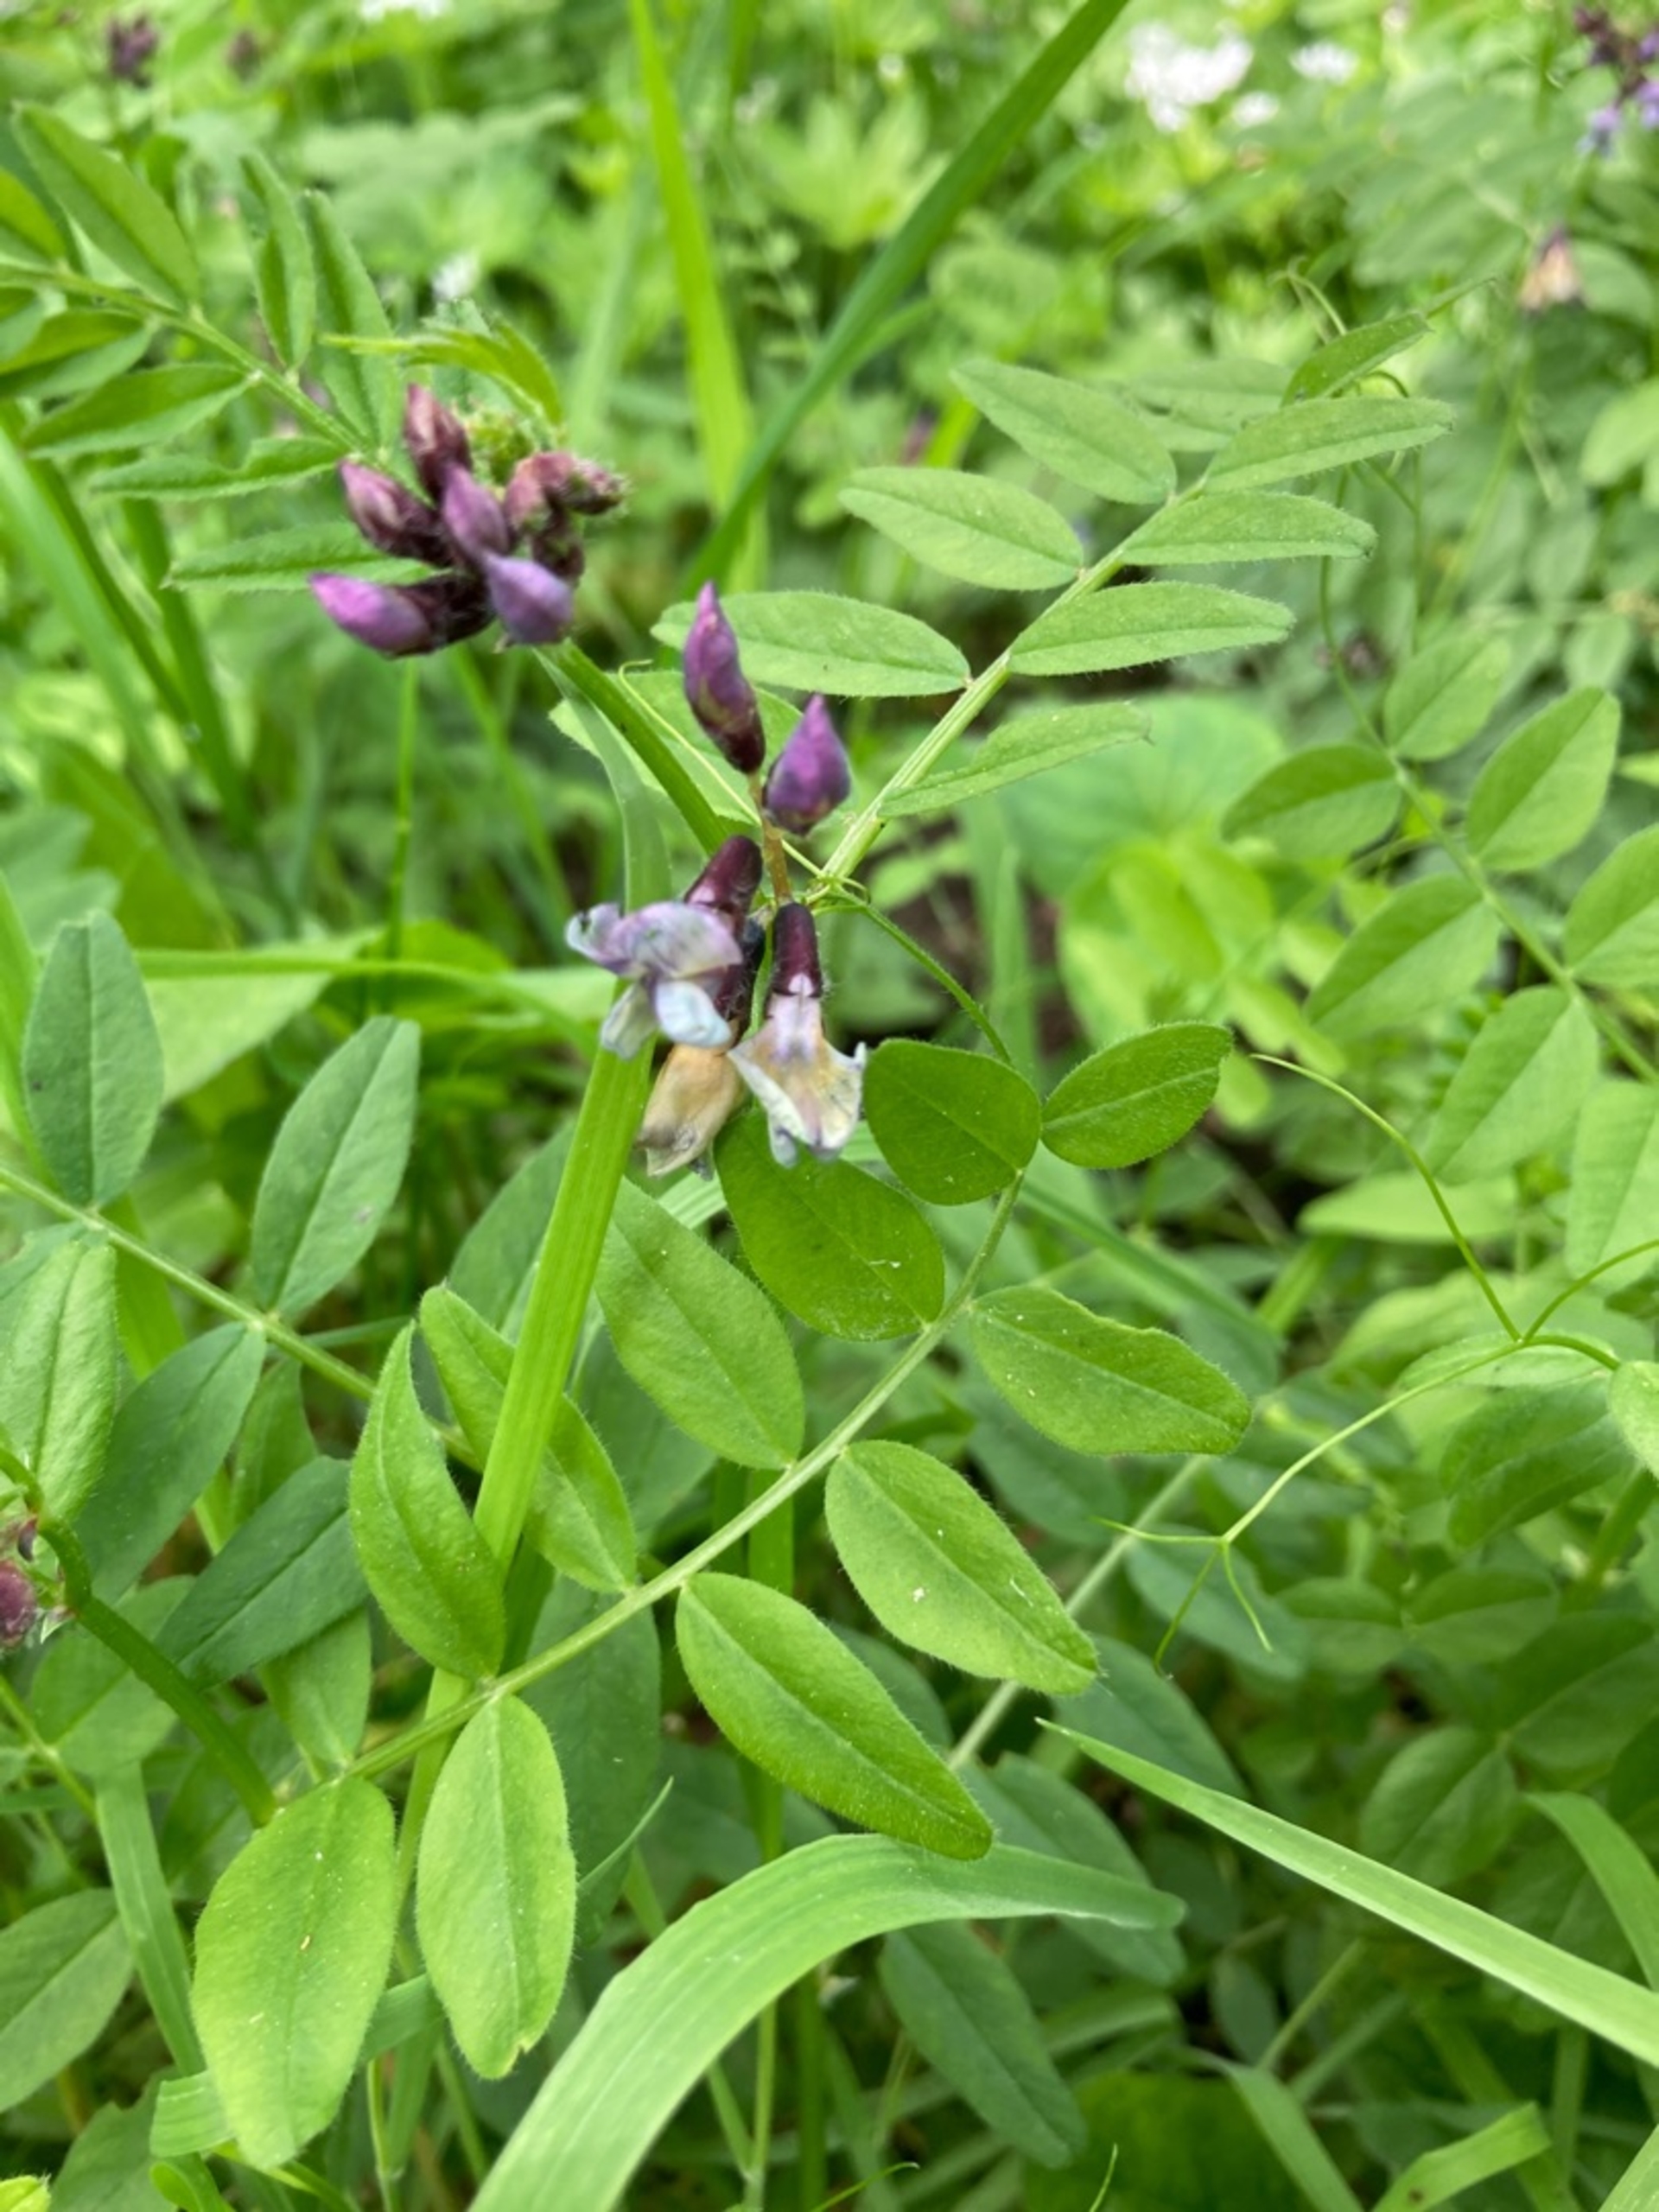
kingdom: Plantae
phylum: Tracheophyta
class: Magnoliopsida
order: Fabales
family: Fabaceae
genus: Vicia
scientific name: Vicia sepium
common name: Gærde-vikke
